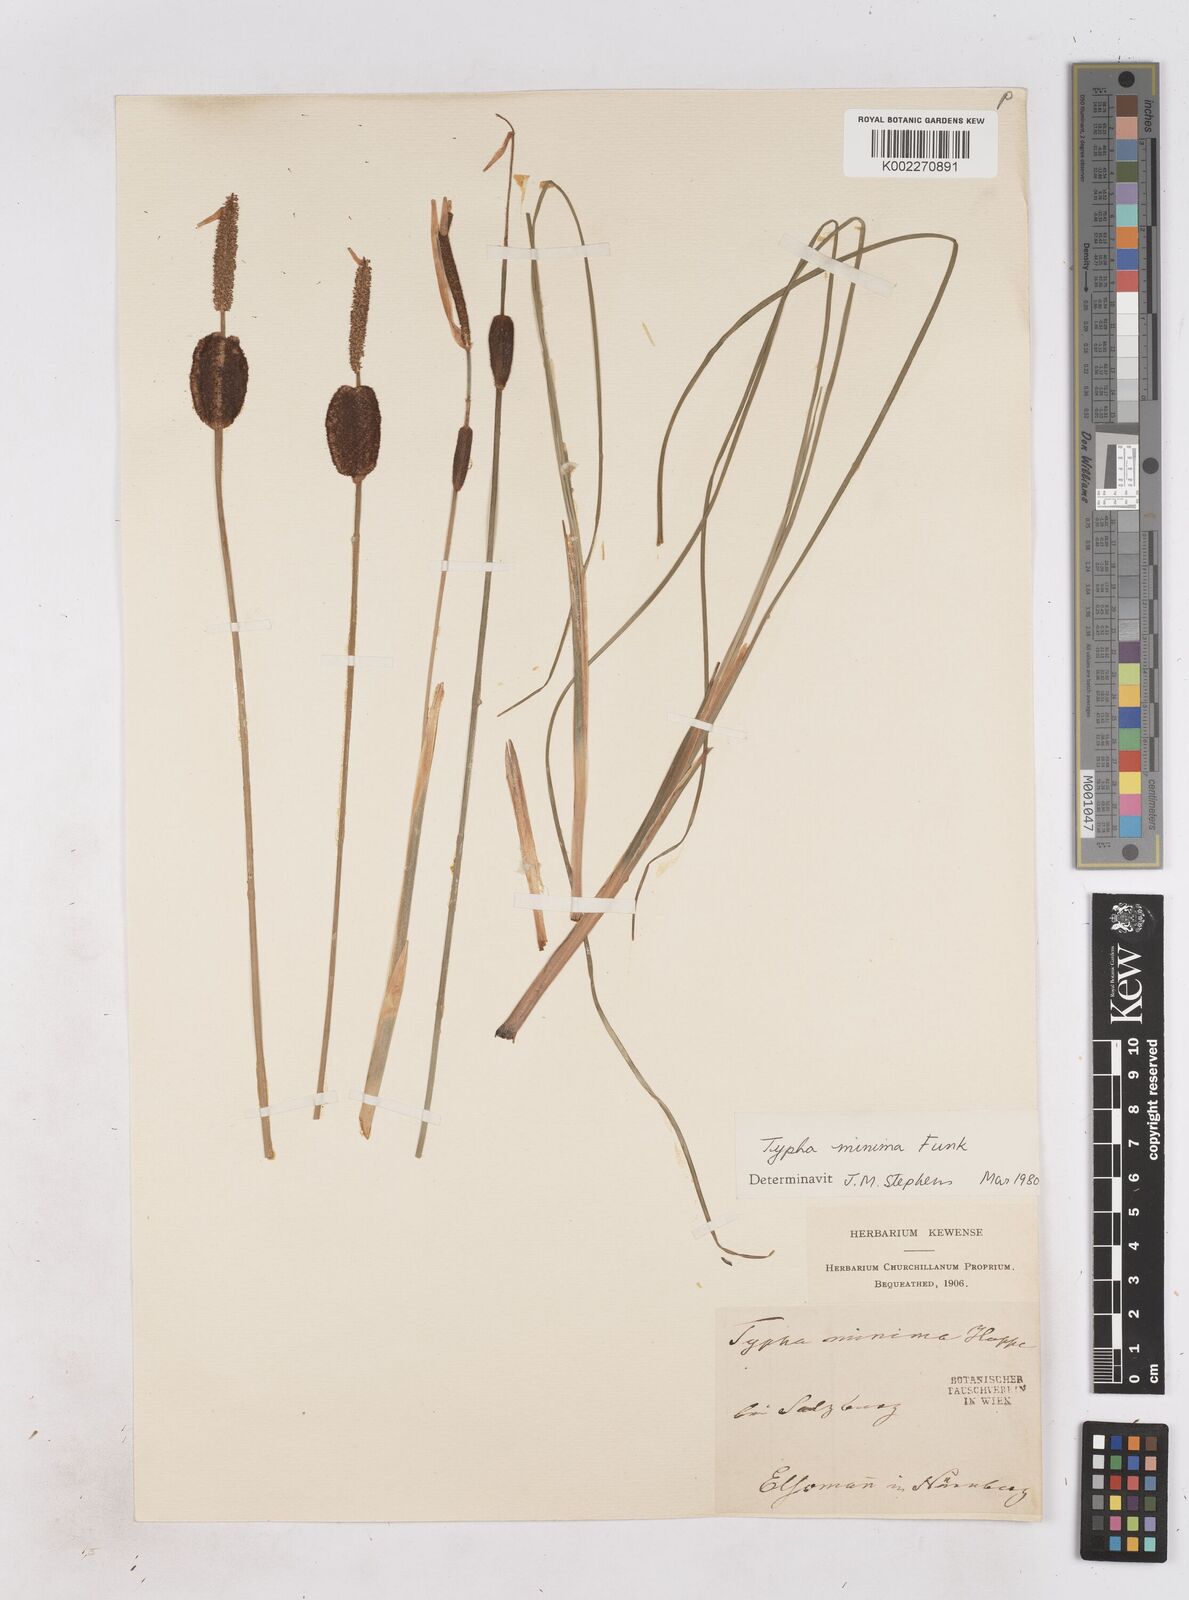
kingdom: Plantae
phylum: Tracheophyta
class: Liliopsida
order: Poales
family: Typhaceae
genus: Typha
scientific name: Typha minima
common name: Dwarf bulrush
